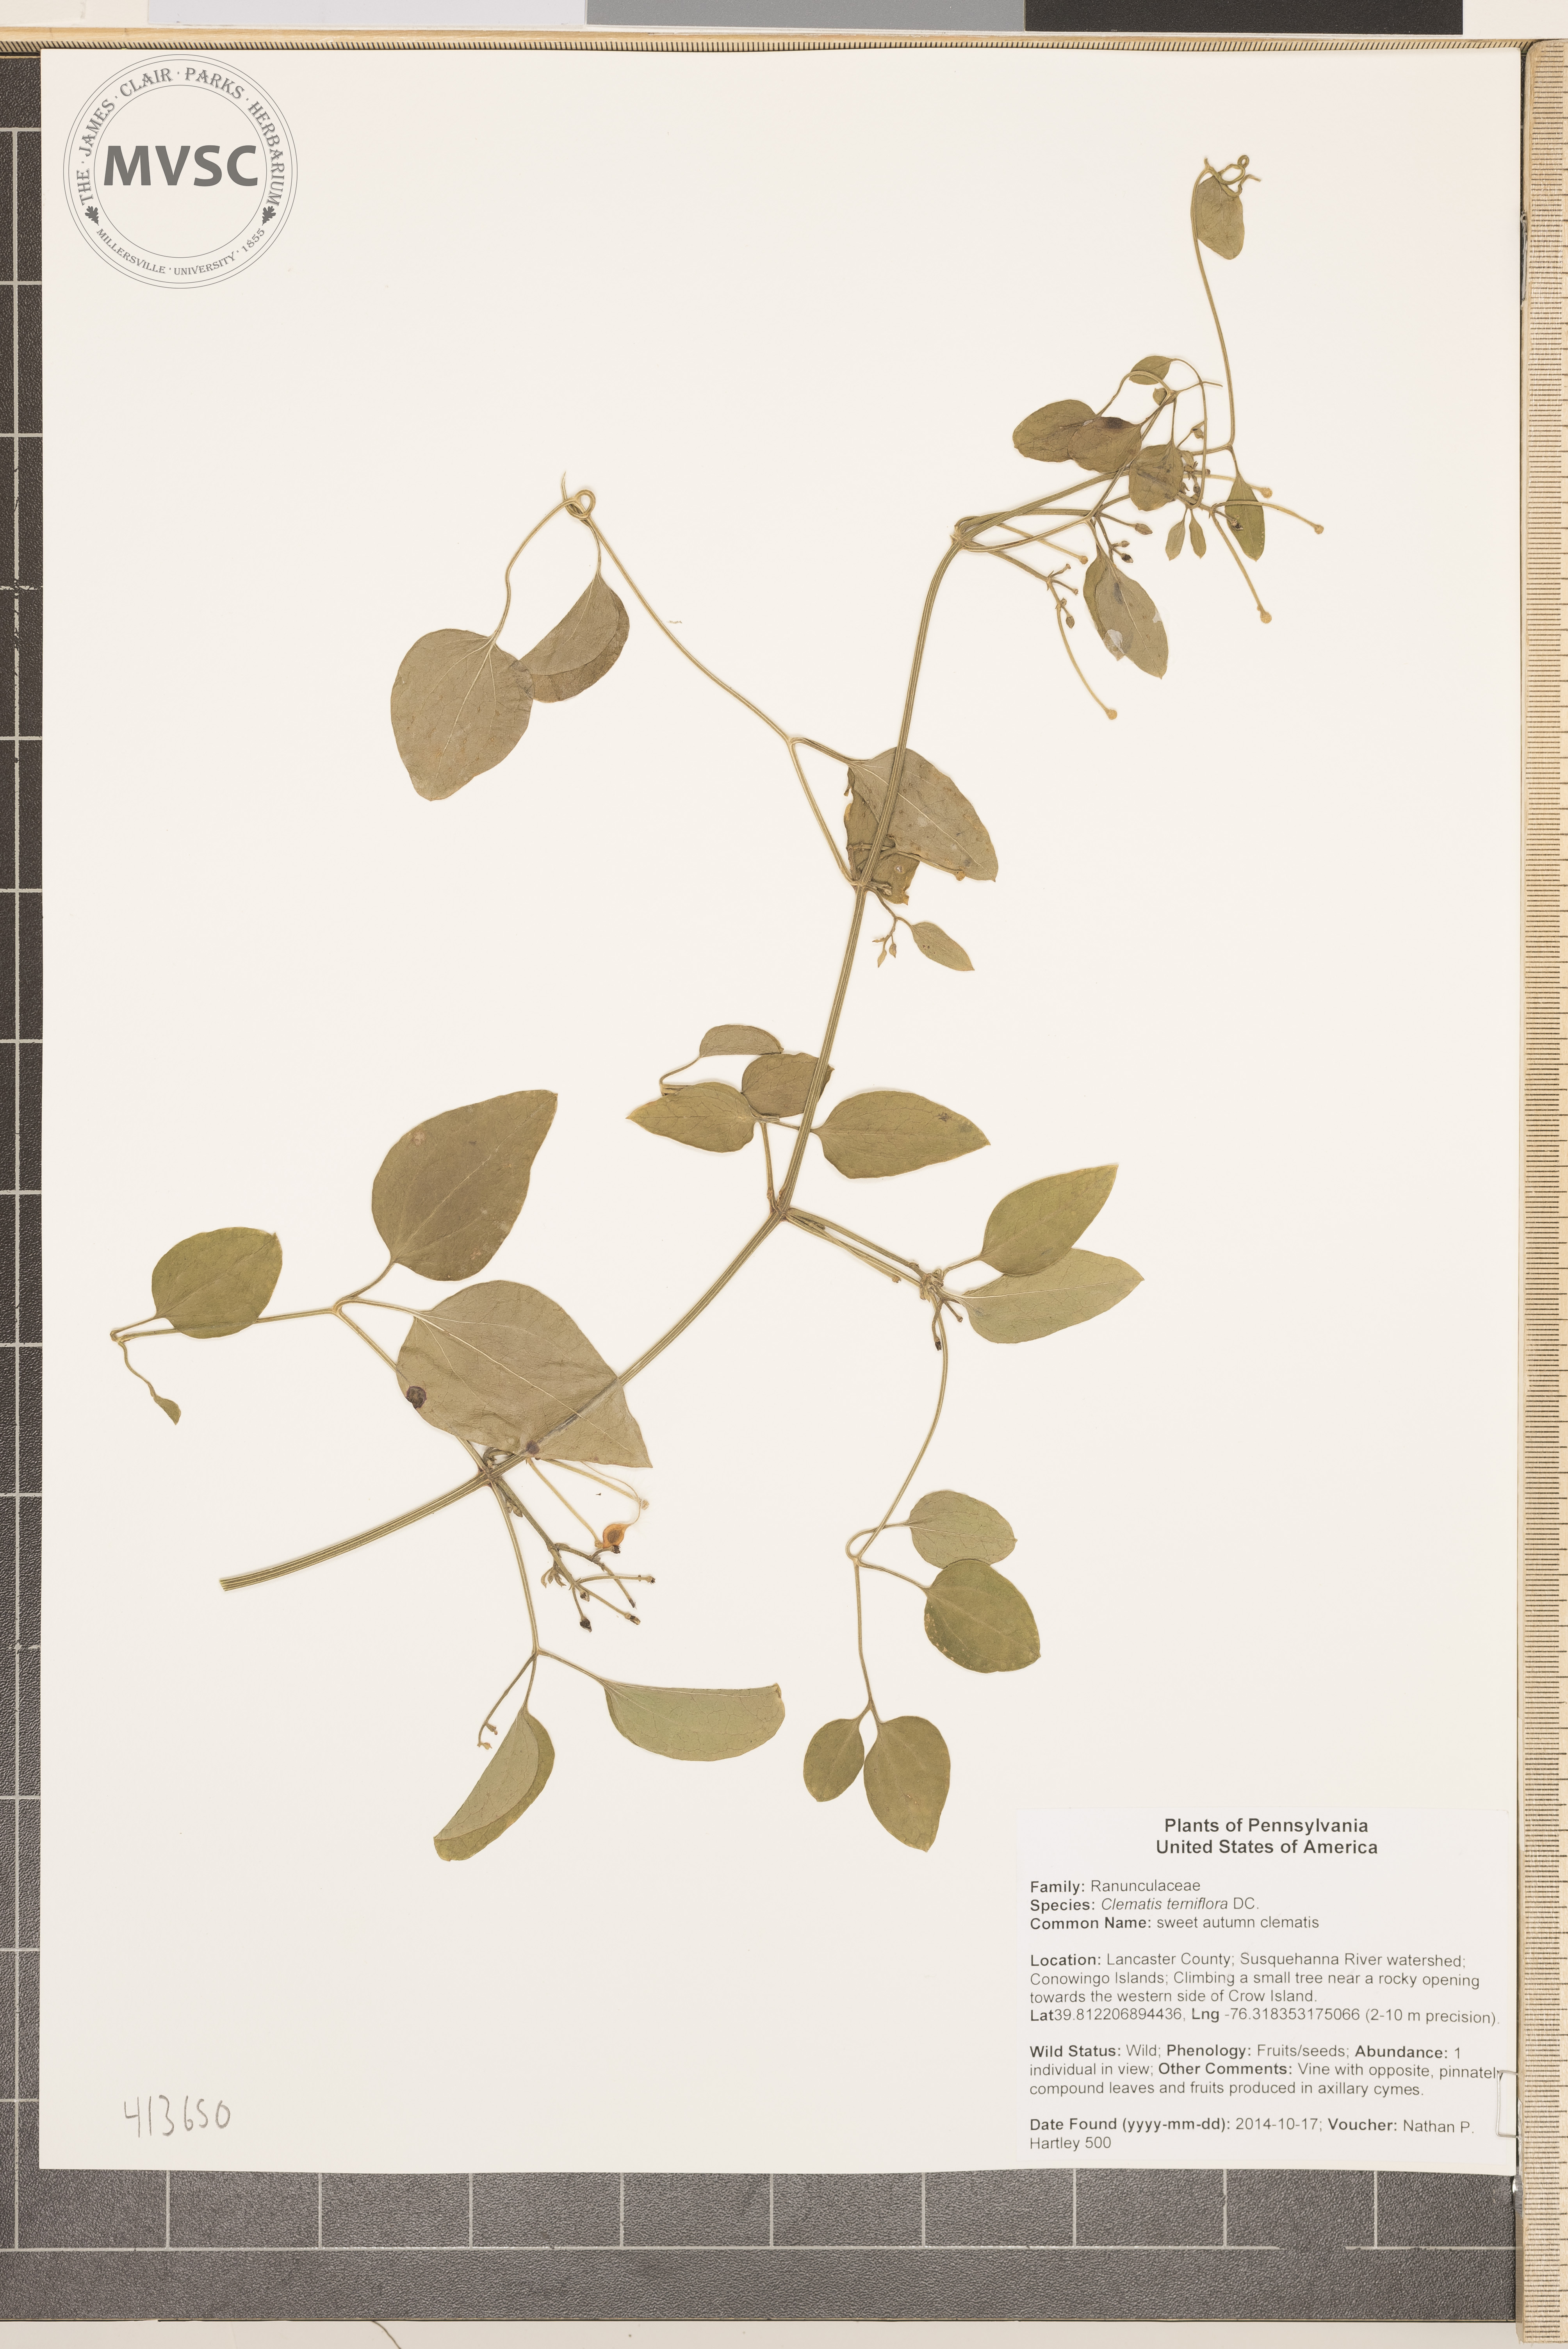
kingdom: Plantae
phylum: Tracheophyta
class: Magnoliopsida
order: Ranunculales
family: Ranunculaceae
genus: Clematis
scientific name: Clematis terniflora
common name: sweet autumn clematis
